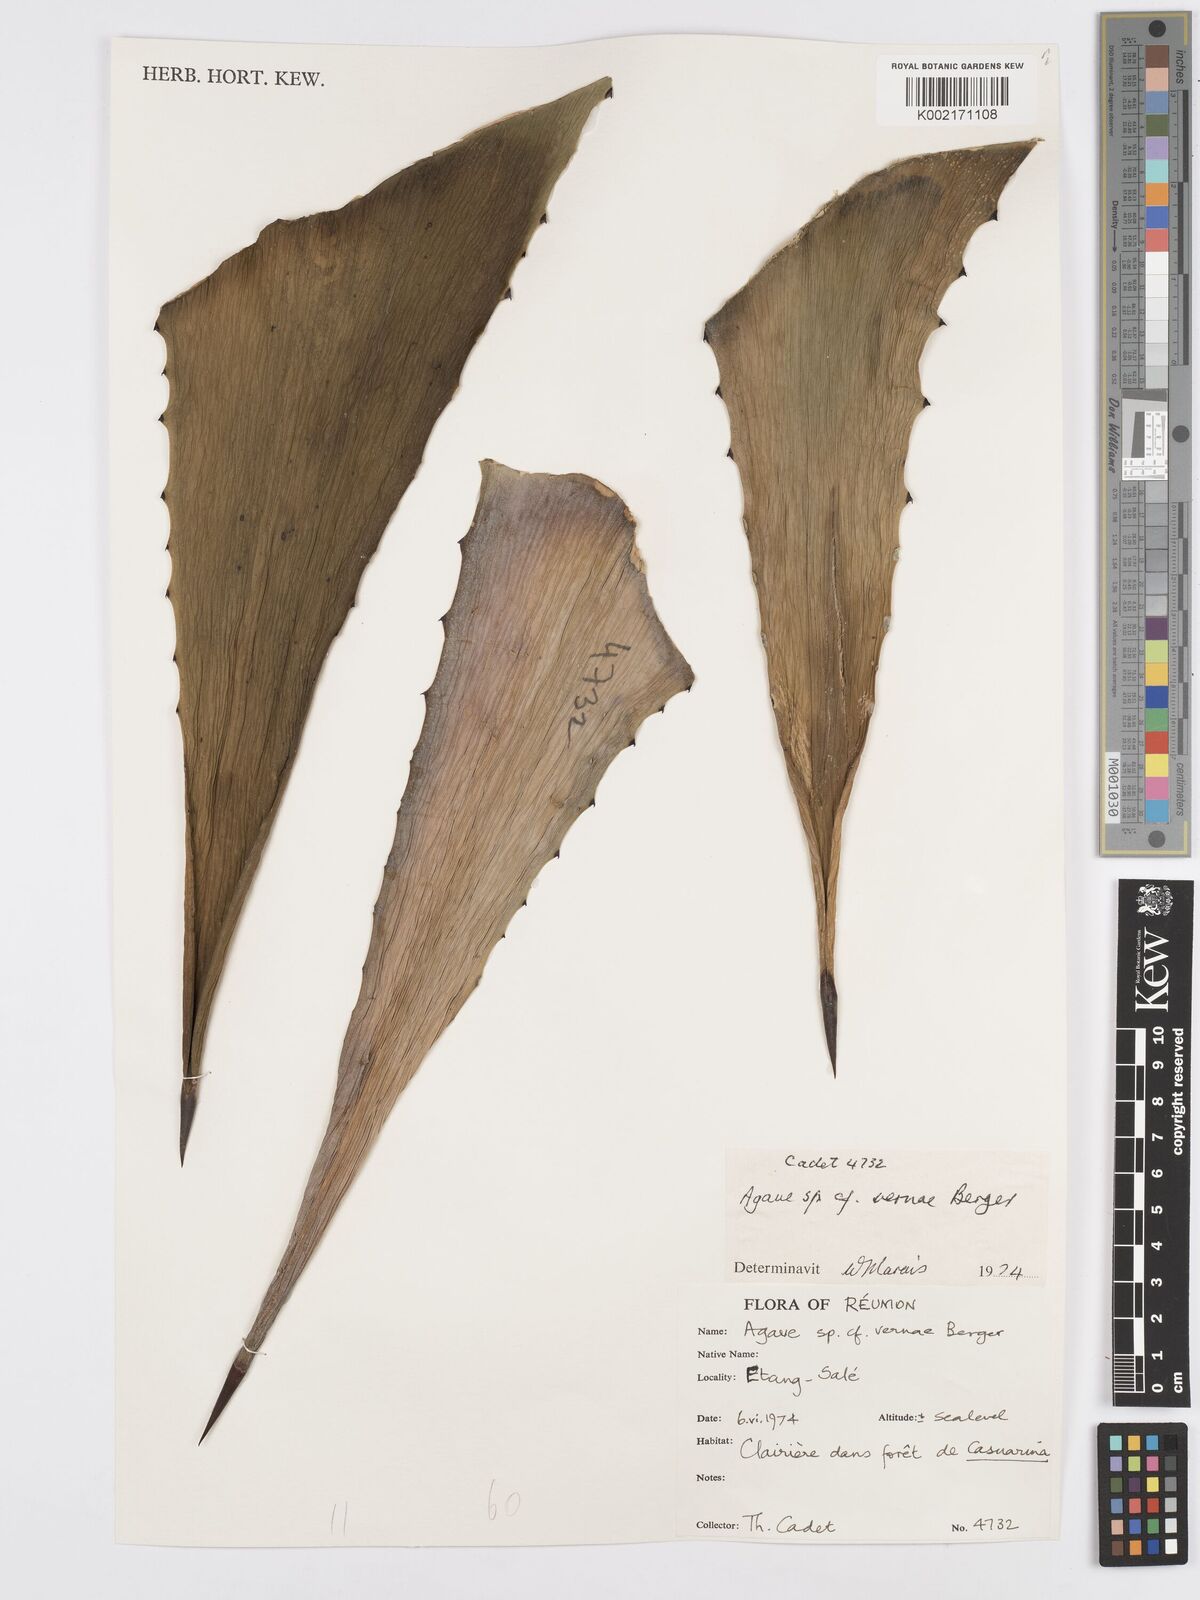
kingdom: Plantae
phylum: Tracheophyta
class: Liliopsida
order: Asparagales
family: Asparagaceae
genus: Agave
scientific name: Agave vera-cruz
